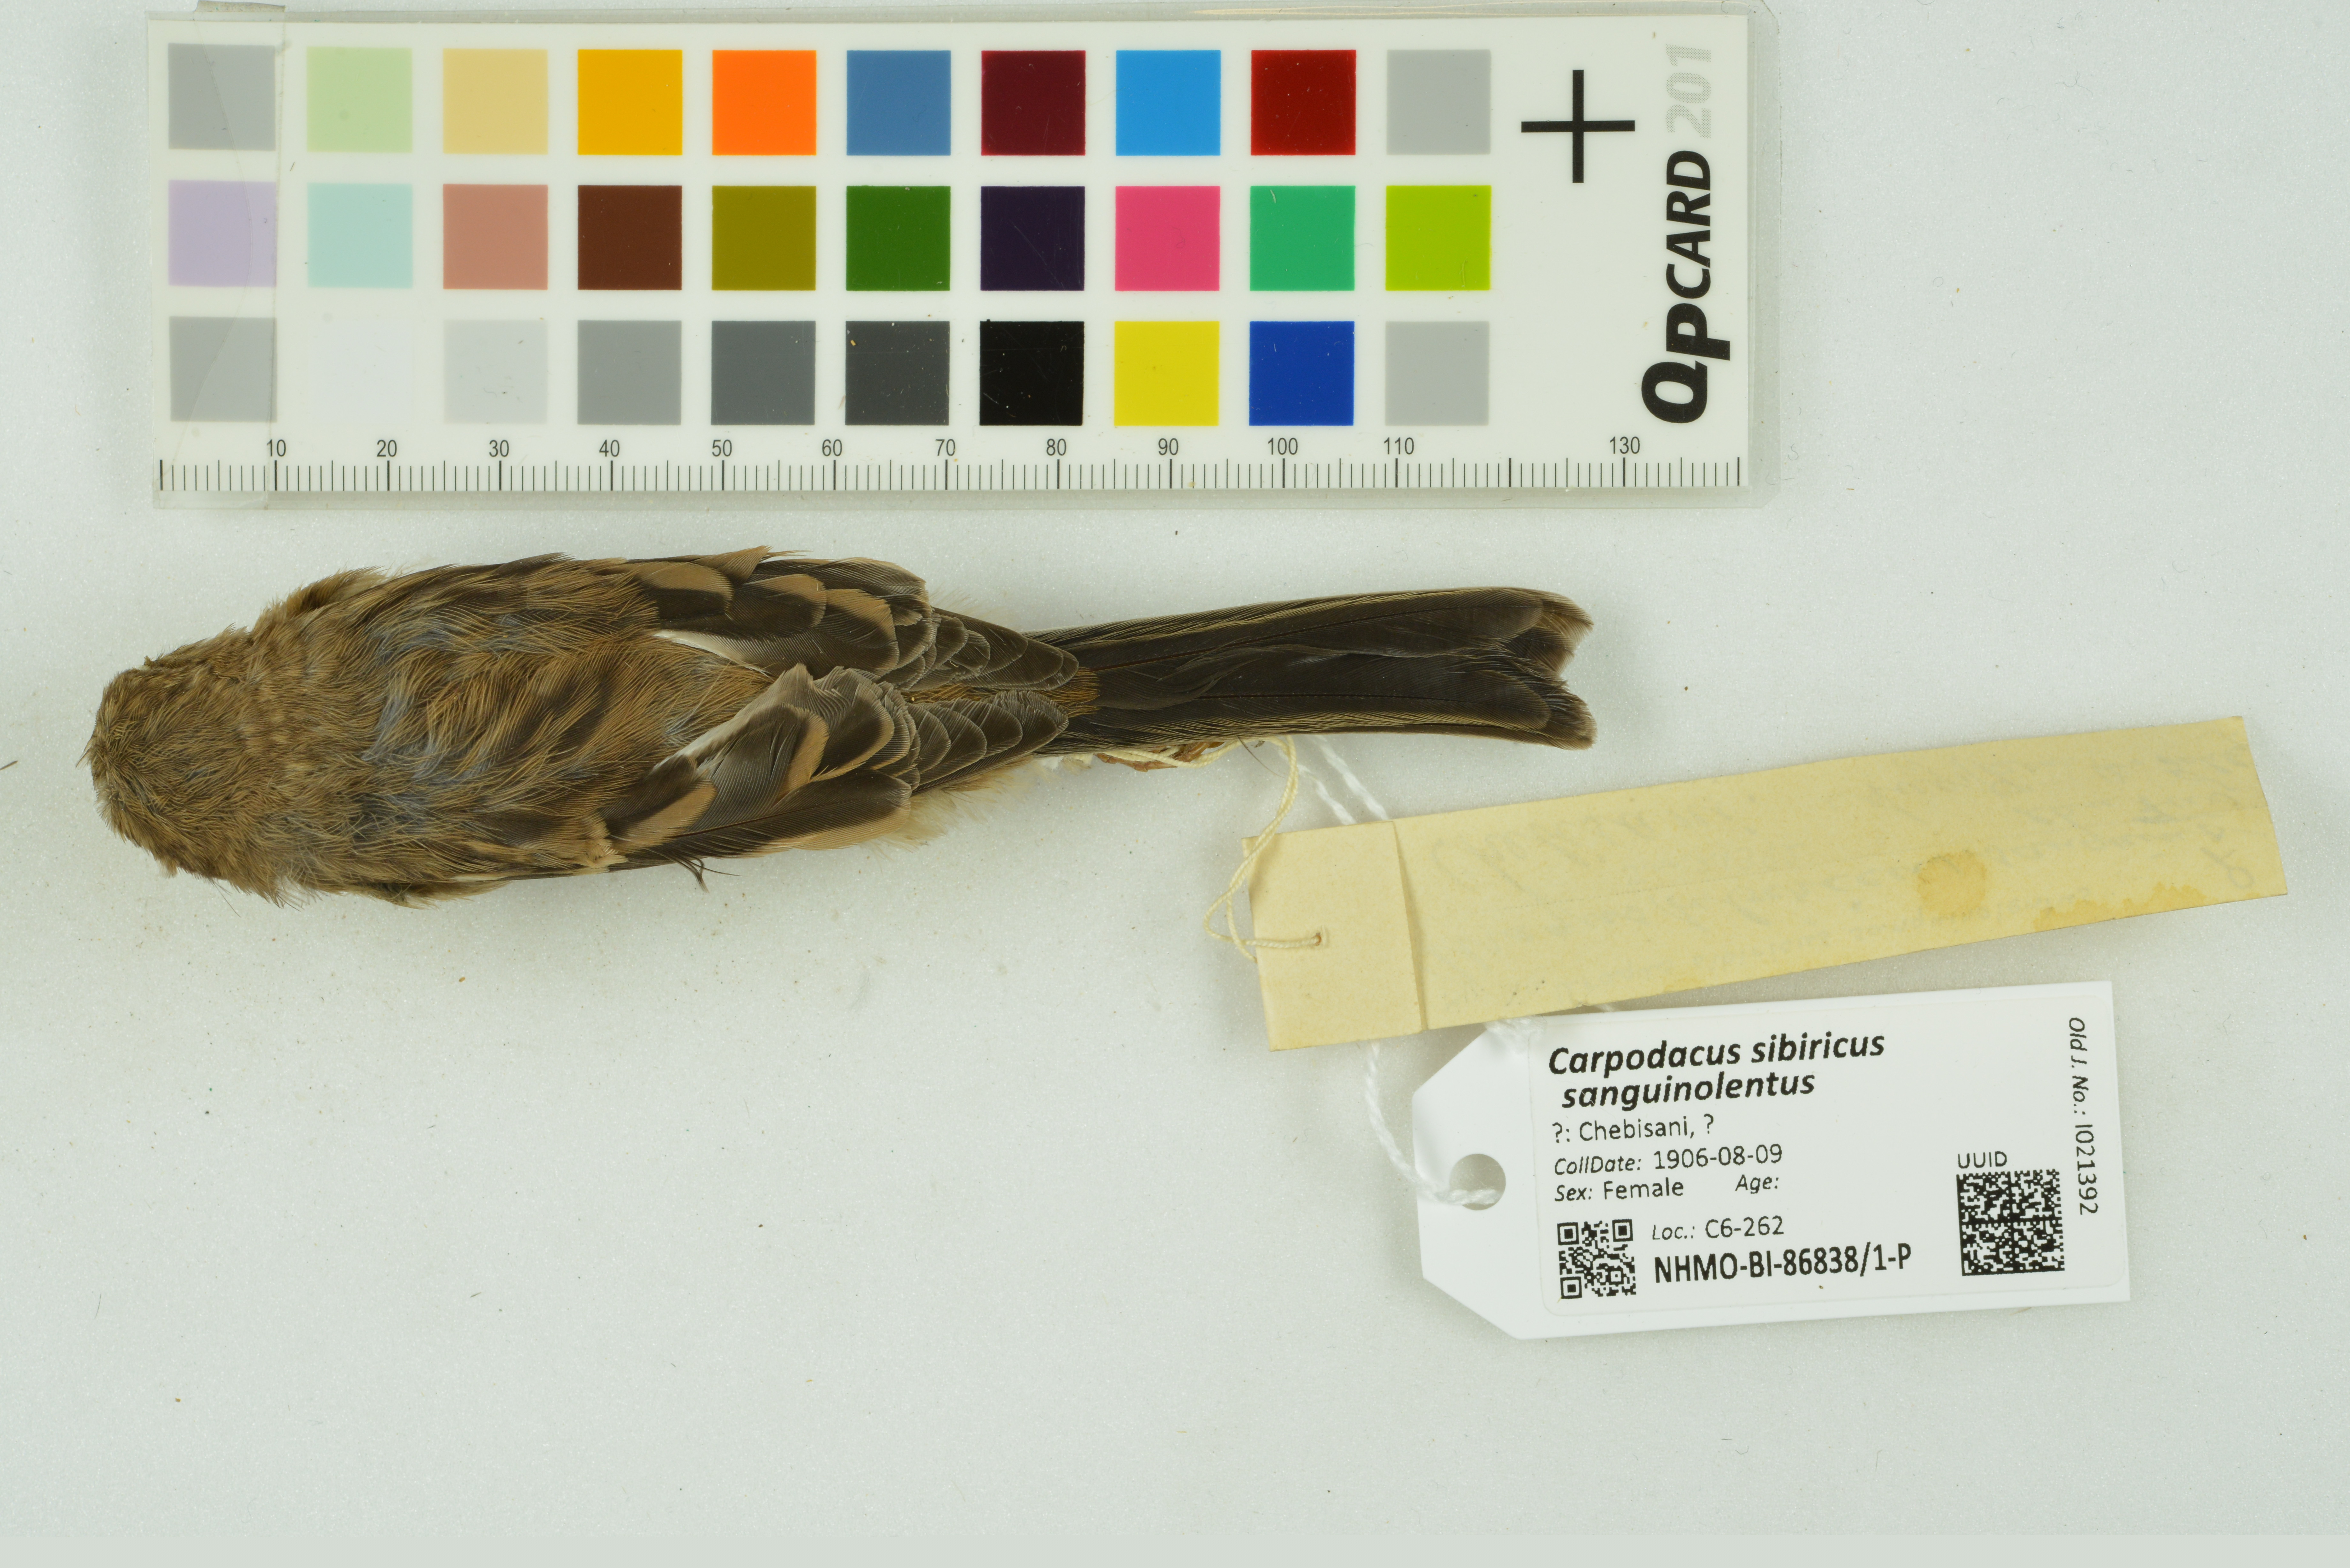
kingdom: Animalia
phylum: Chordata
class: Aves
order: Passeriformes
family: Fringillidae
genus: Carpodacus
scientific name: Carpodacus sibiricus
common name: Long-tailed rosefinch
